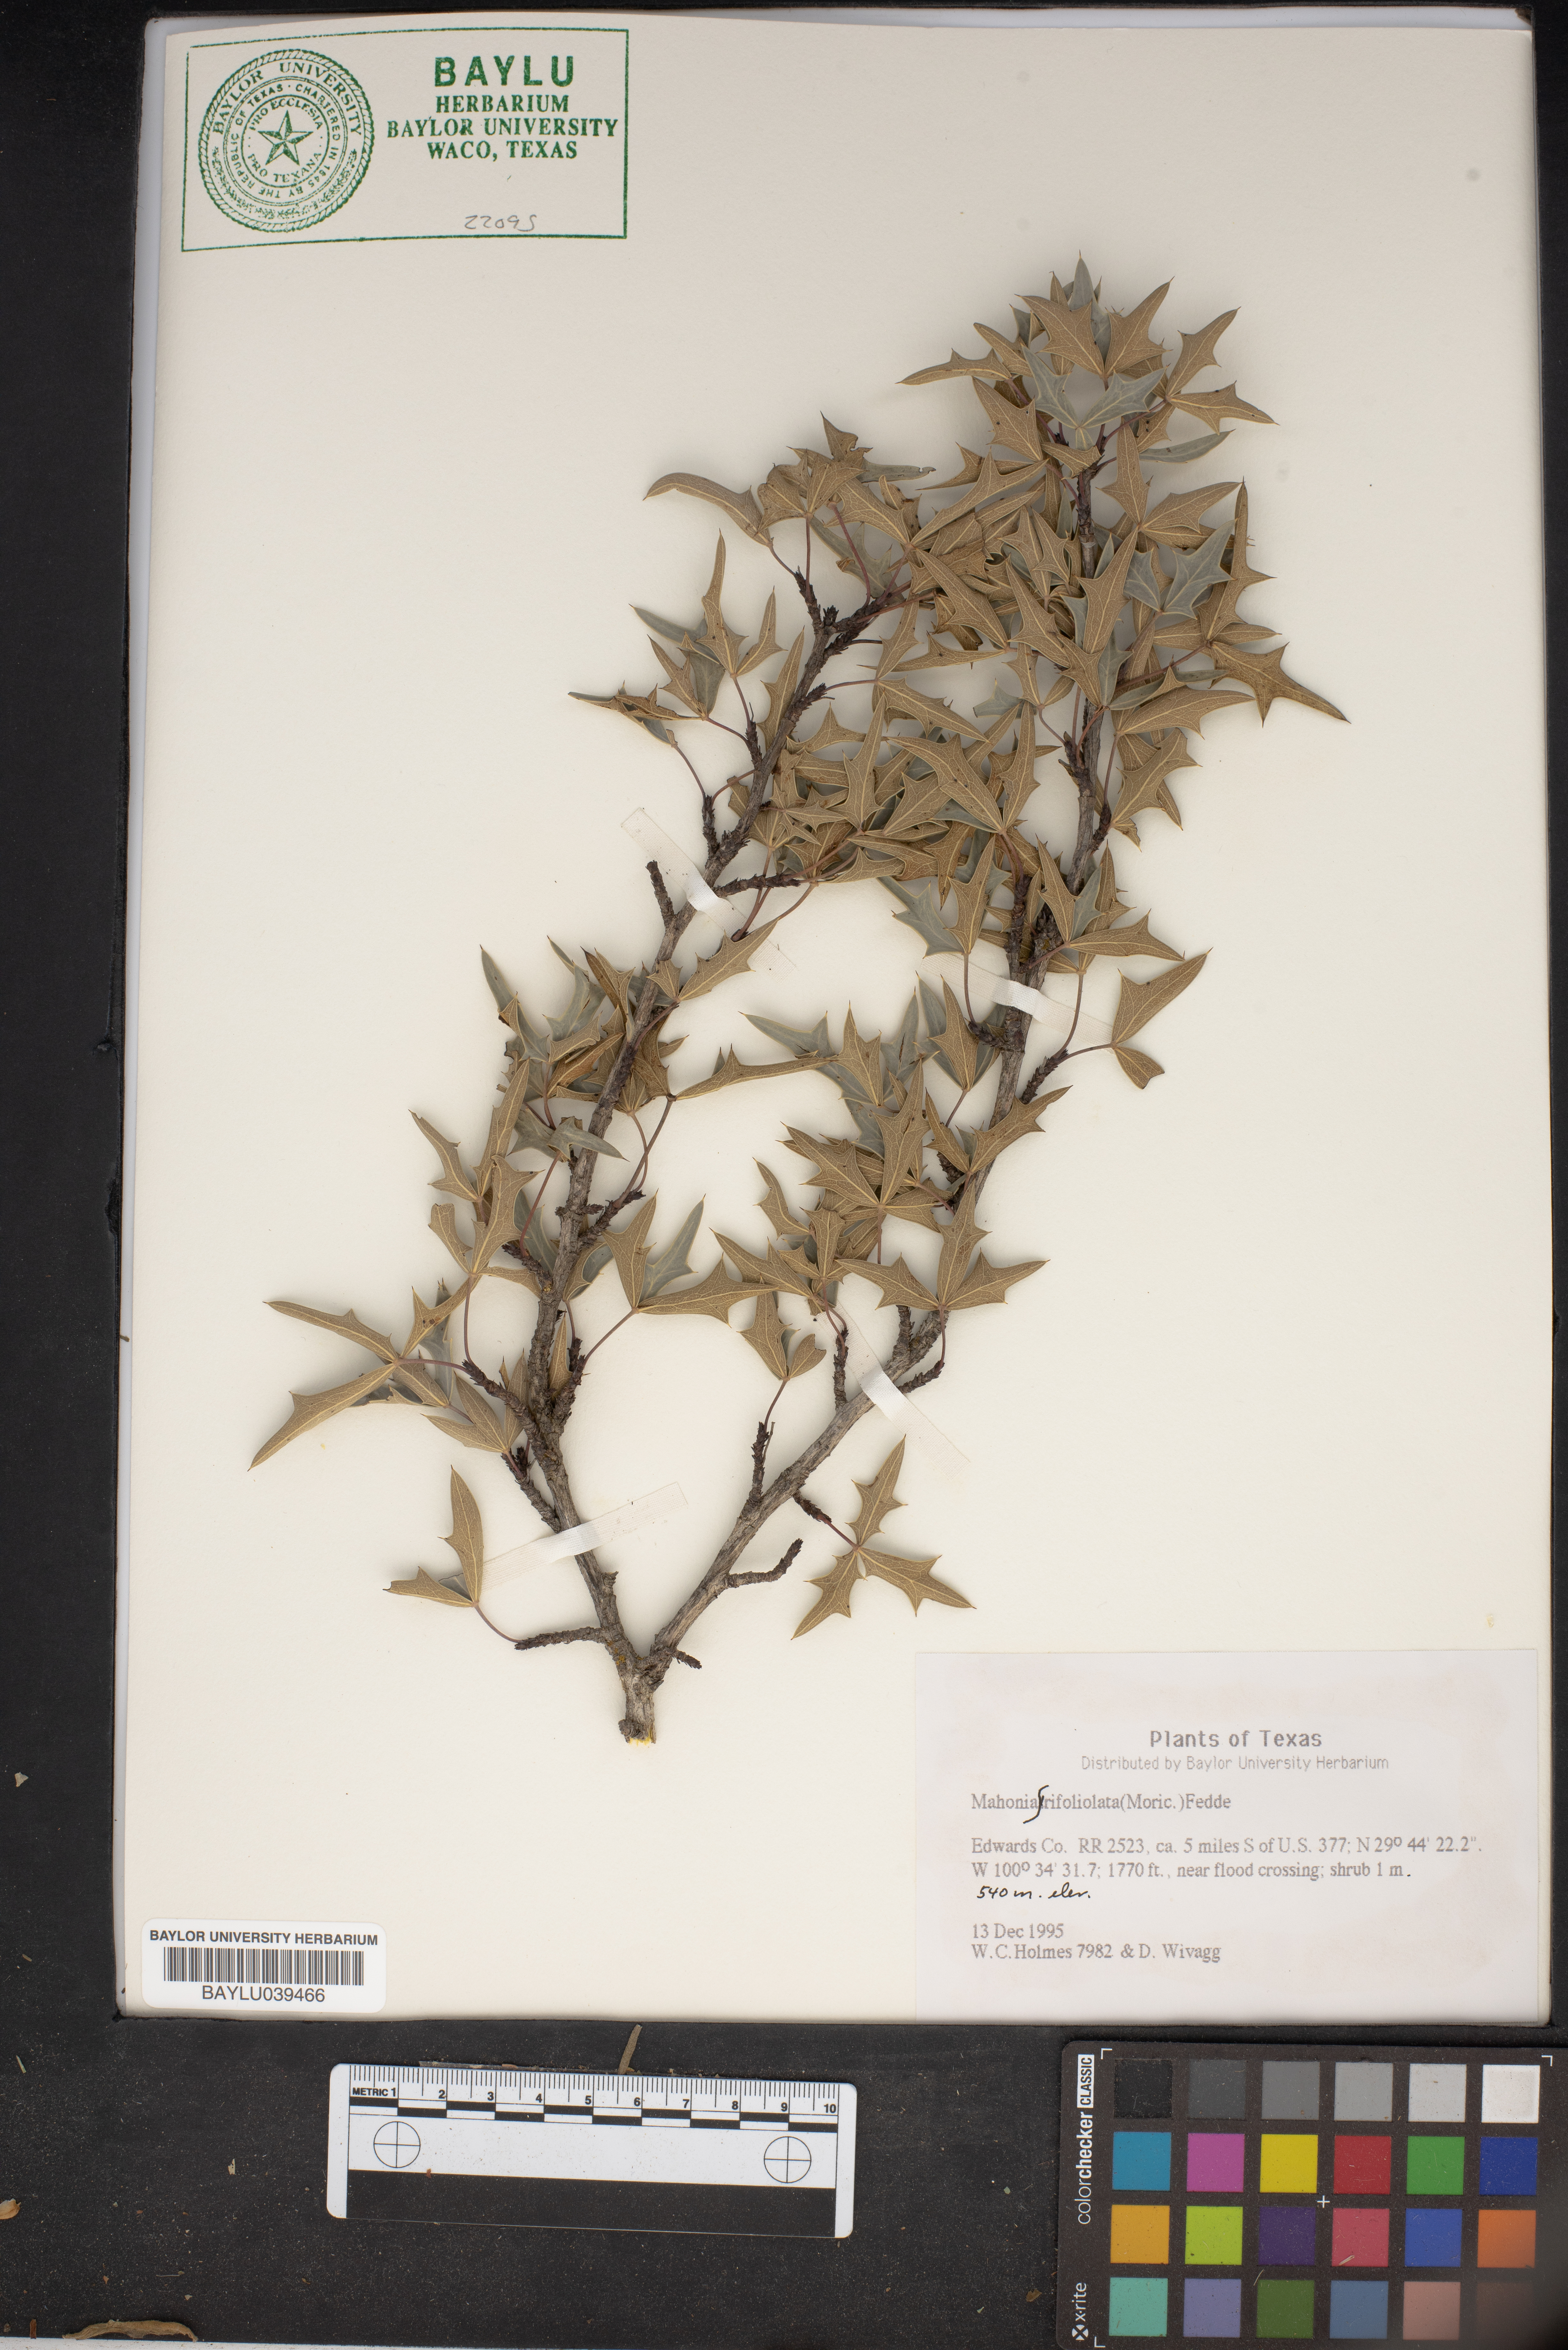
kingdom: Plantae
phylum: Tracheophyta
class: Magnoliopsida
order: Ranunculales
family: Berberidaceae
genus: Alloberberis
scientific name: Alloberberis trifoliolata
